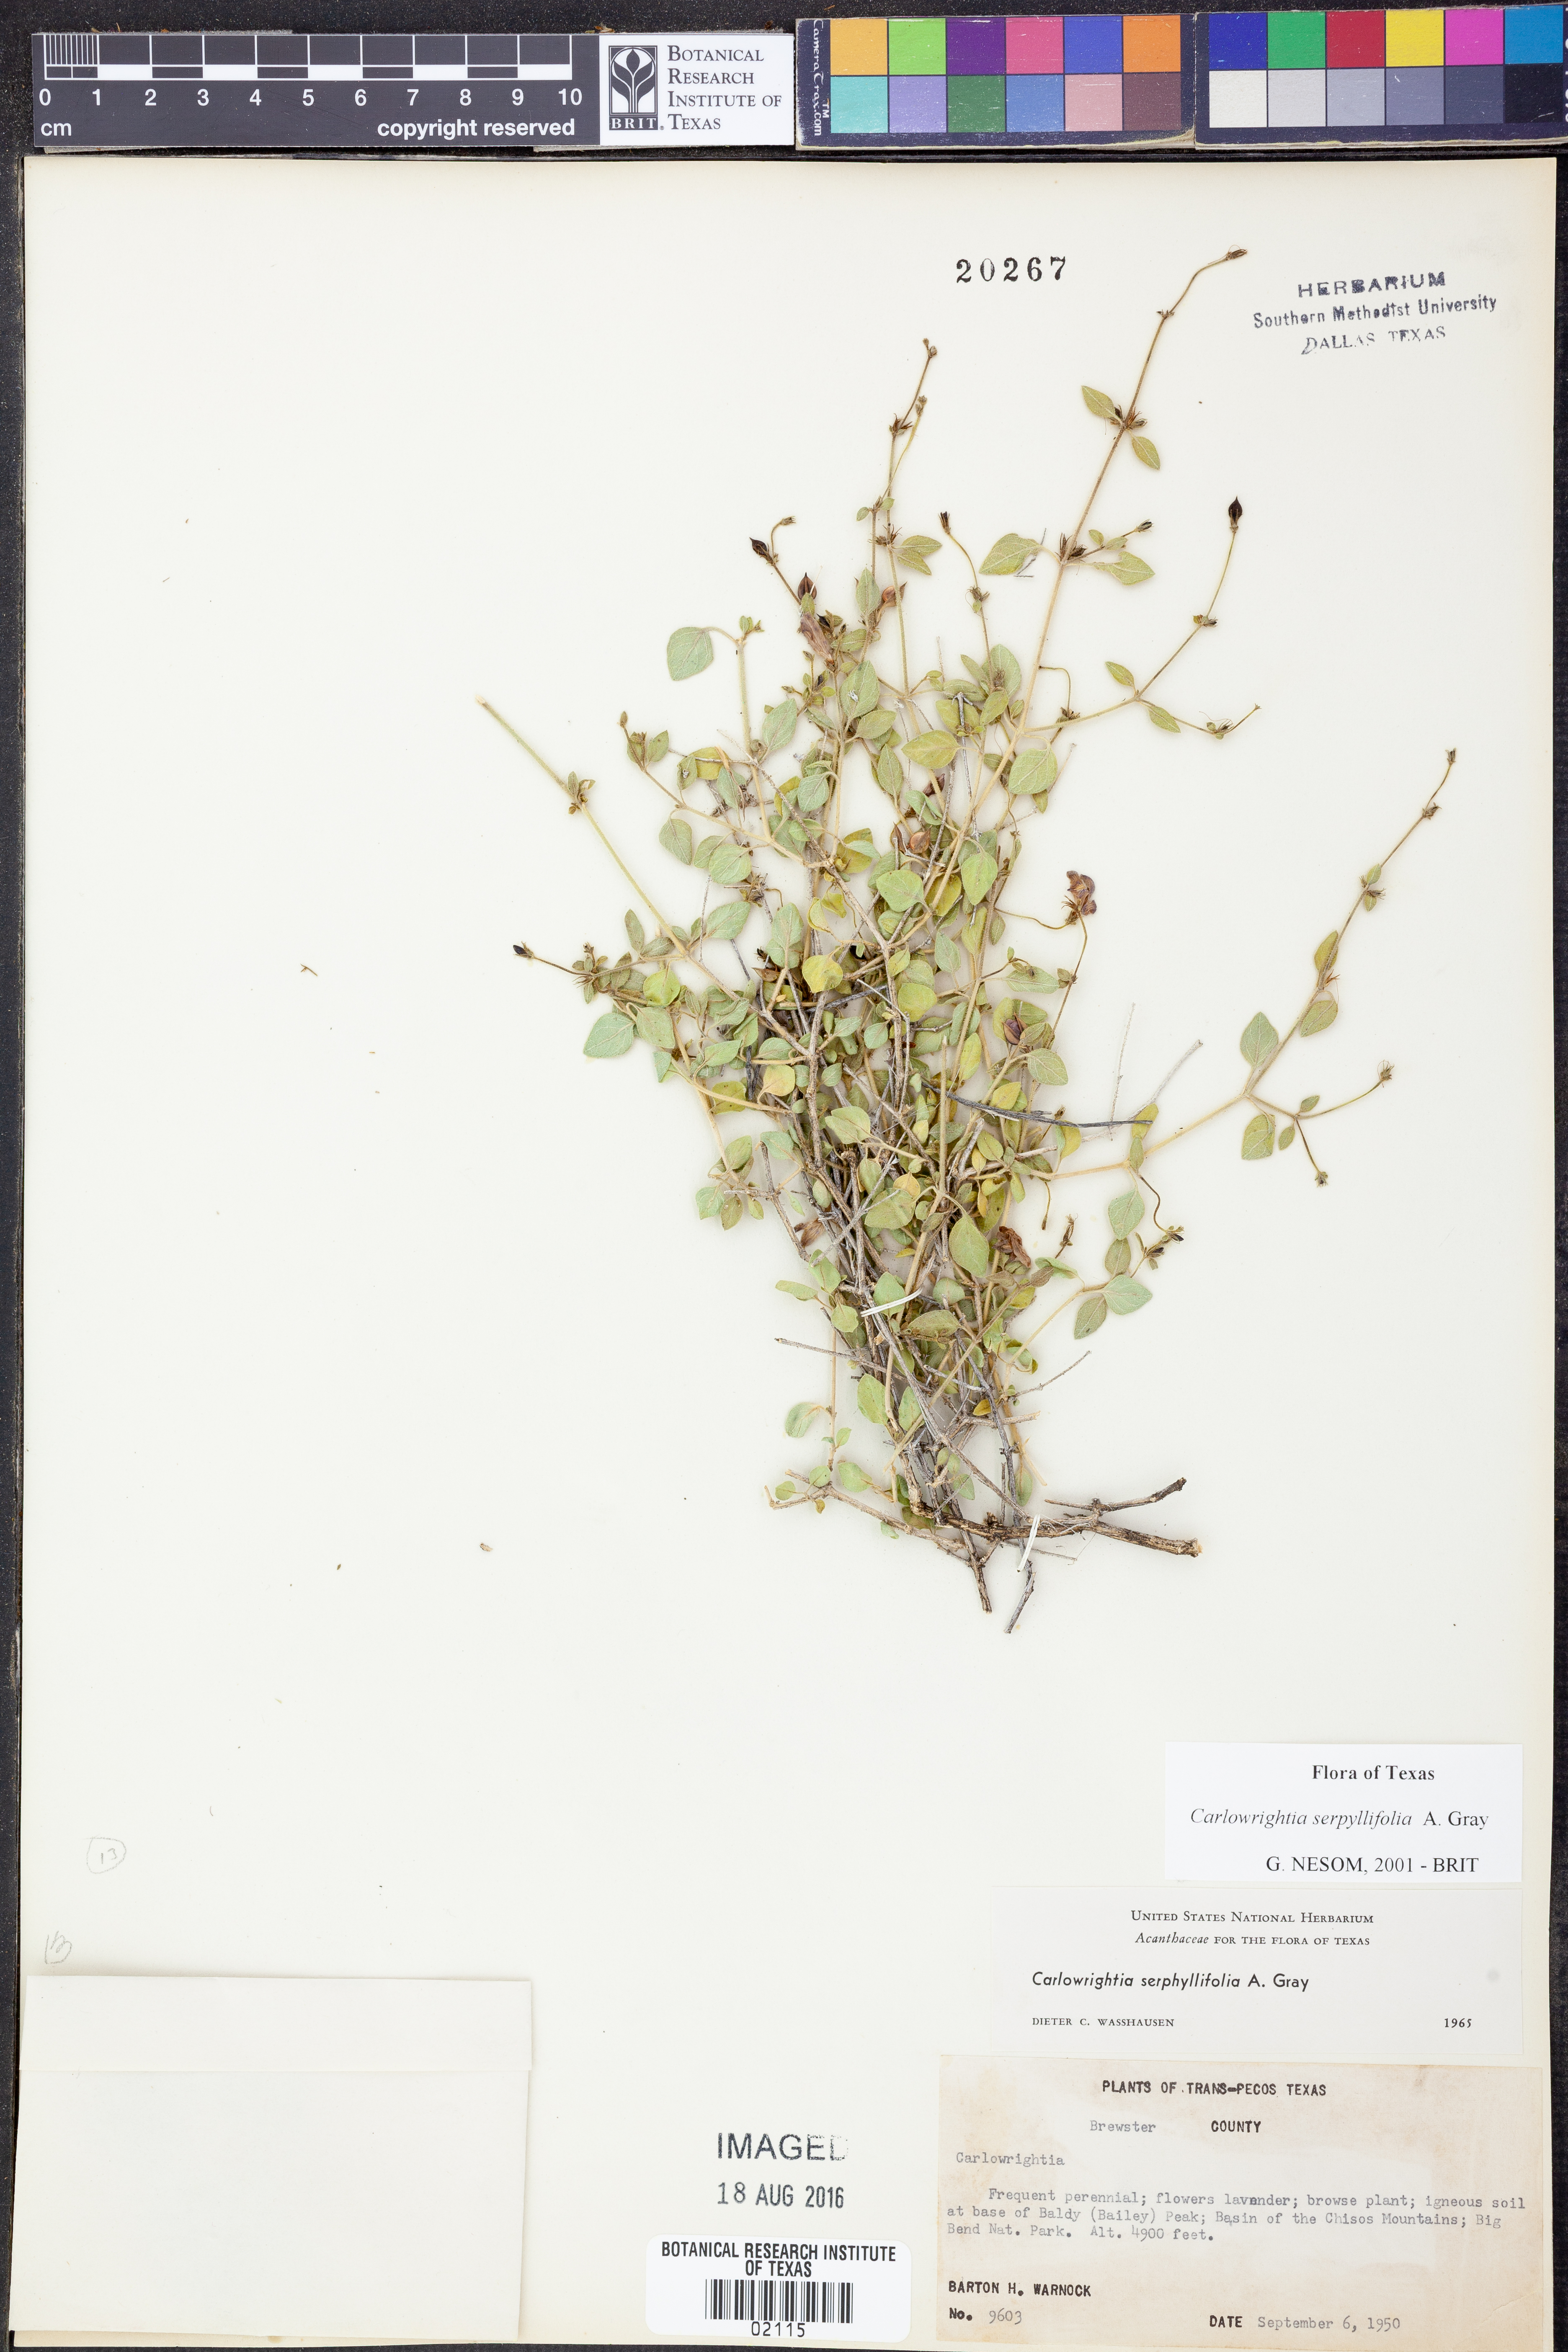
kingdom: Plantae
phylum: Tracheophyta
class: Magnoliopsida
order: Lamiales
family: Acanthaceae
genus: Carlowrightia
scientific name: Carlowrightia serpyllifolia
